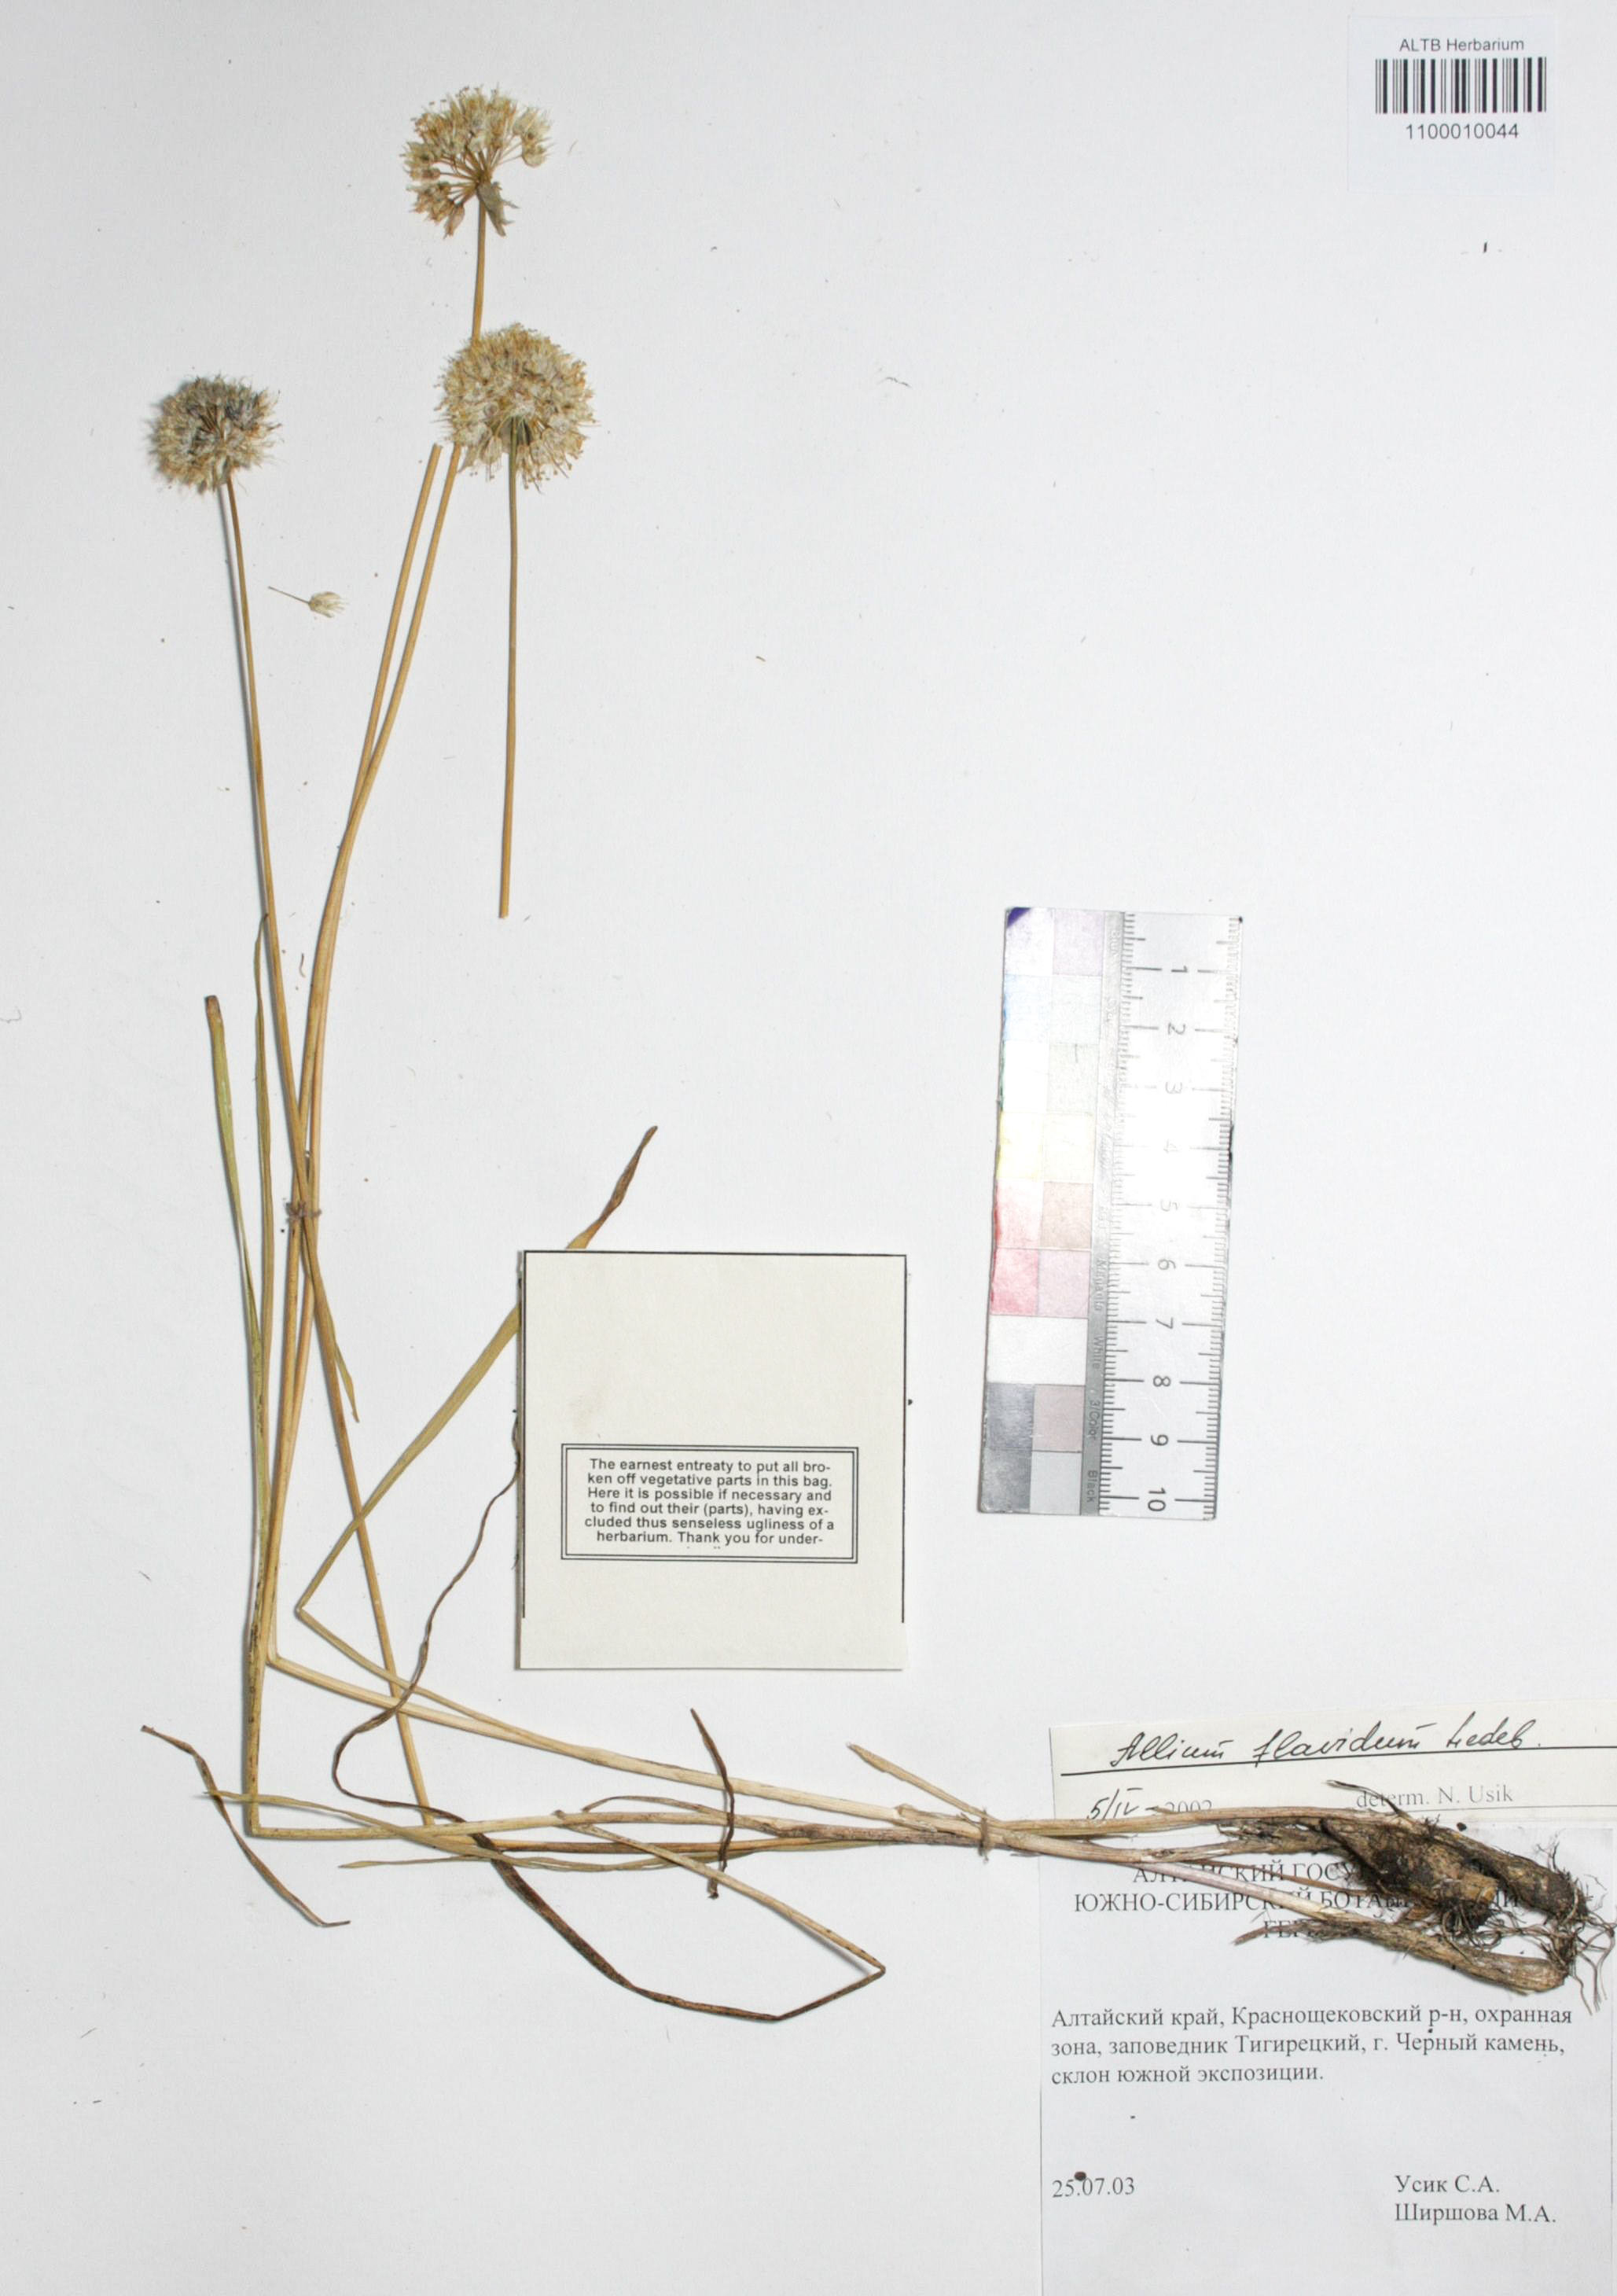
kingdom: Plantae
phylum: Tracheophyta
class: Liliopsida
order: Asparagales
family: Amaryllidaceae
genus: Allium
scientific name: Allium flavidum
